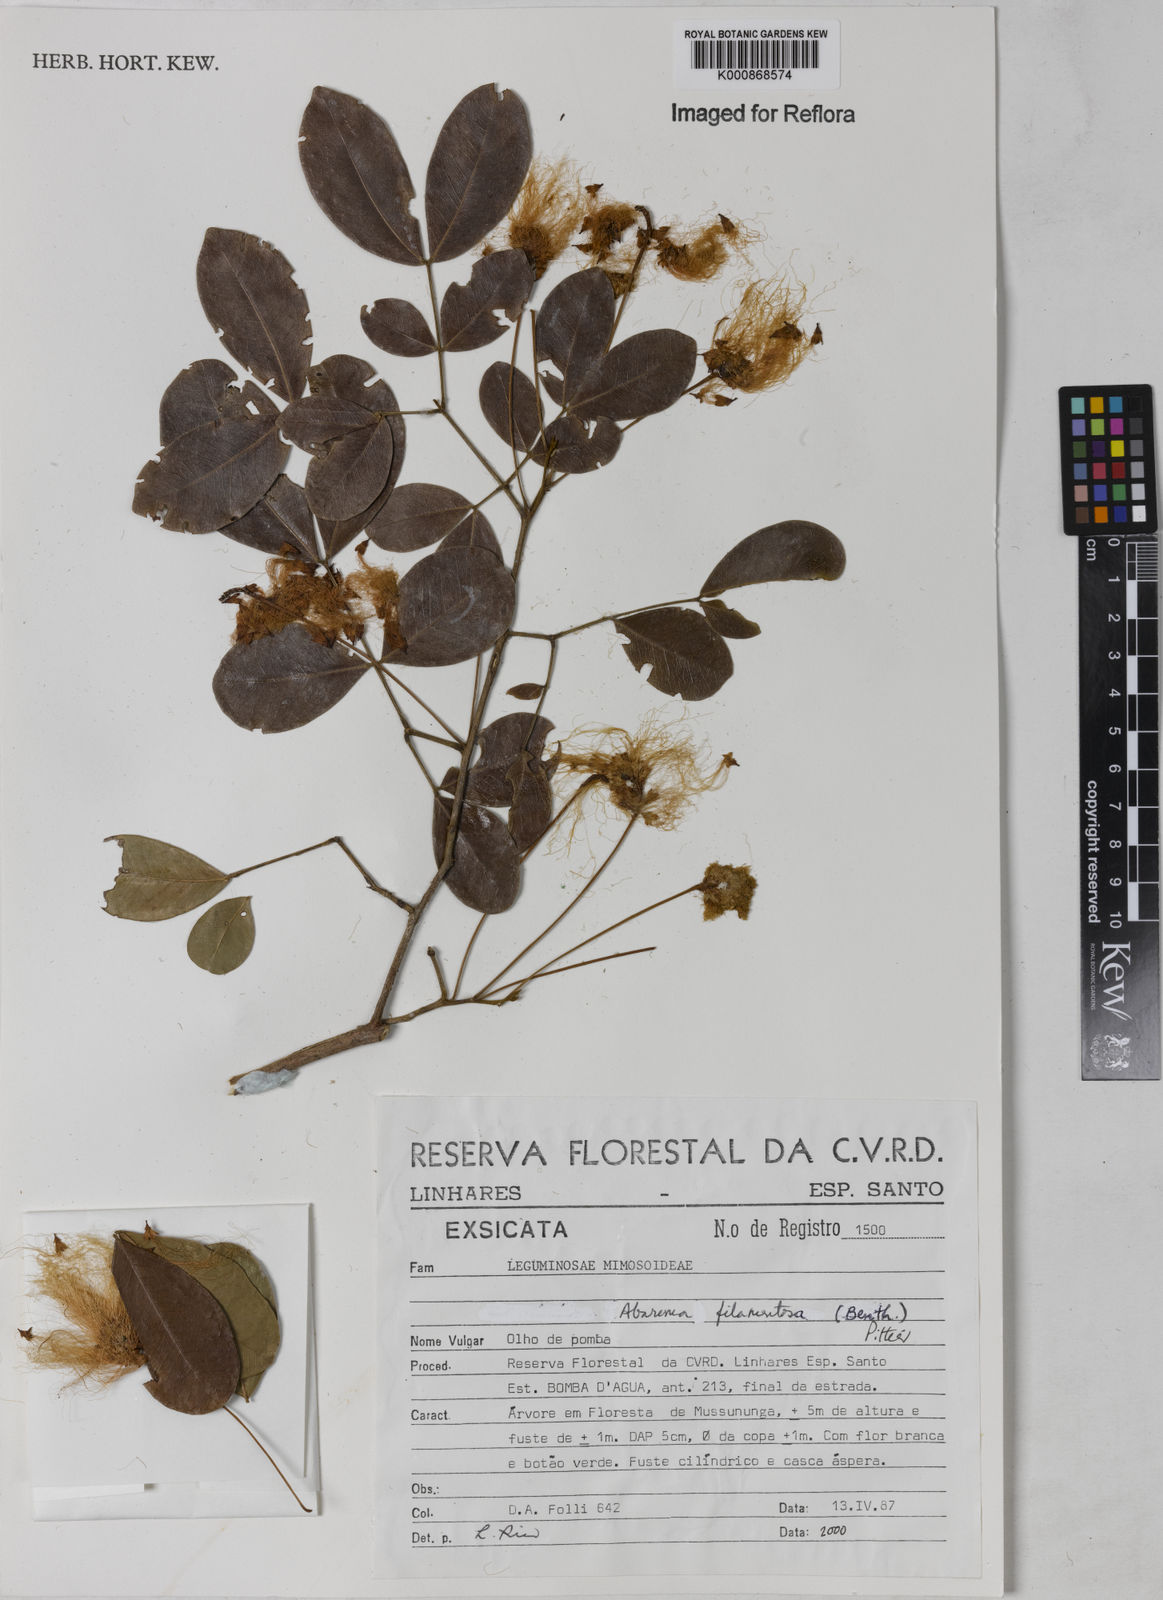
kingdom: Plantae
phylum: Tracheophyta
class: Magnoliopsida
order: Fabales
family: Fabaceae
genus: Jupunba
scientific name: Jupunba filamentosa
